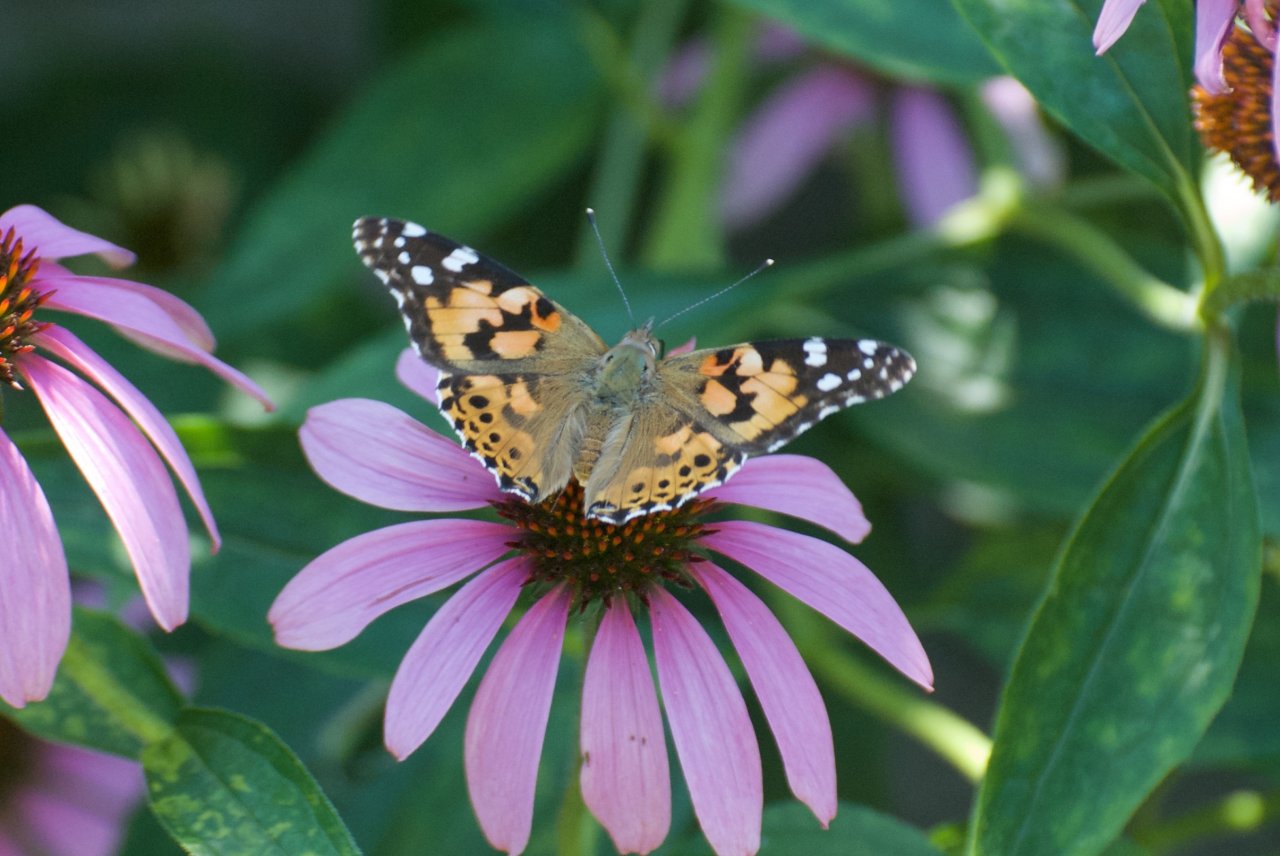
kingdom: Animalia
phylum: Arthropoda
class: Insecta
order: Lepidoptera
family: Nymphalidae
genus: Vanessa
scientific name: Vanessa cardui
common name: Painted Lady
